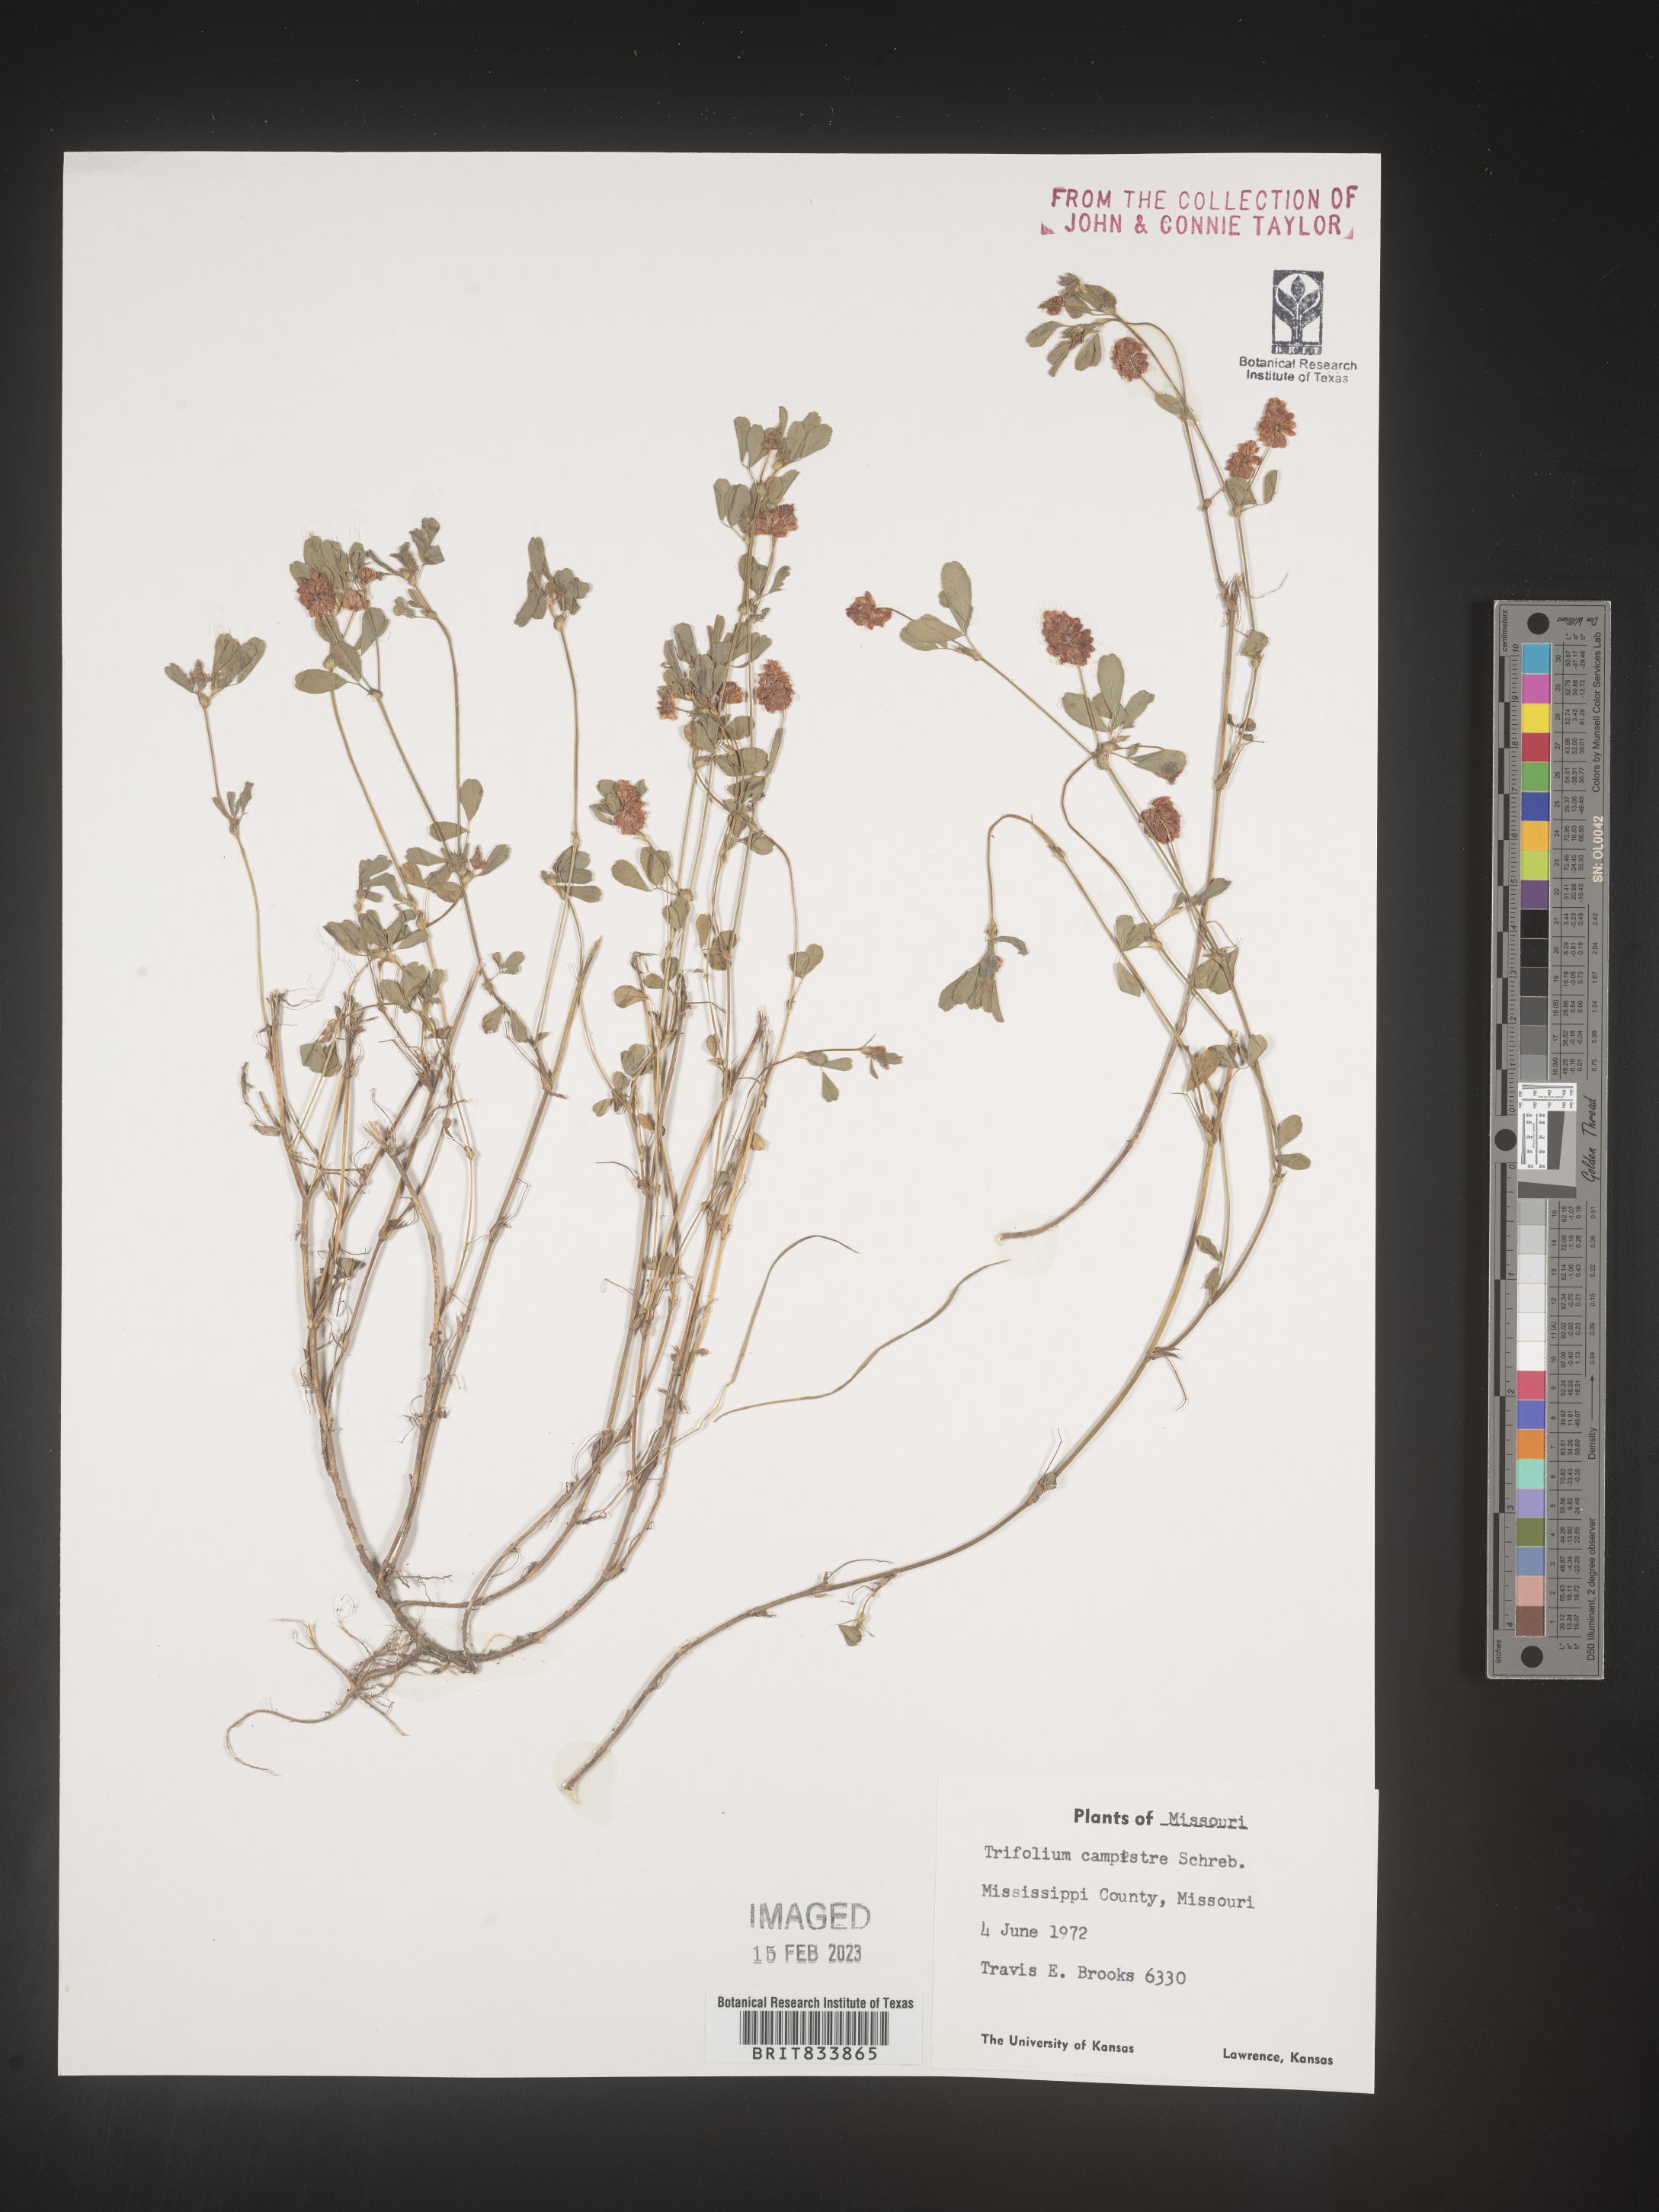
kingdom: Plantae
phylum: Tracheophyta
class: Magnoliopsida
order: Fabales
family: Fabaceae
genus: Trifolium
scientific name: Trifolium campestre
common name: Field clover
